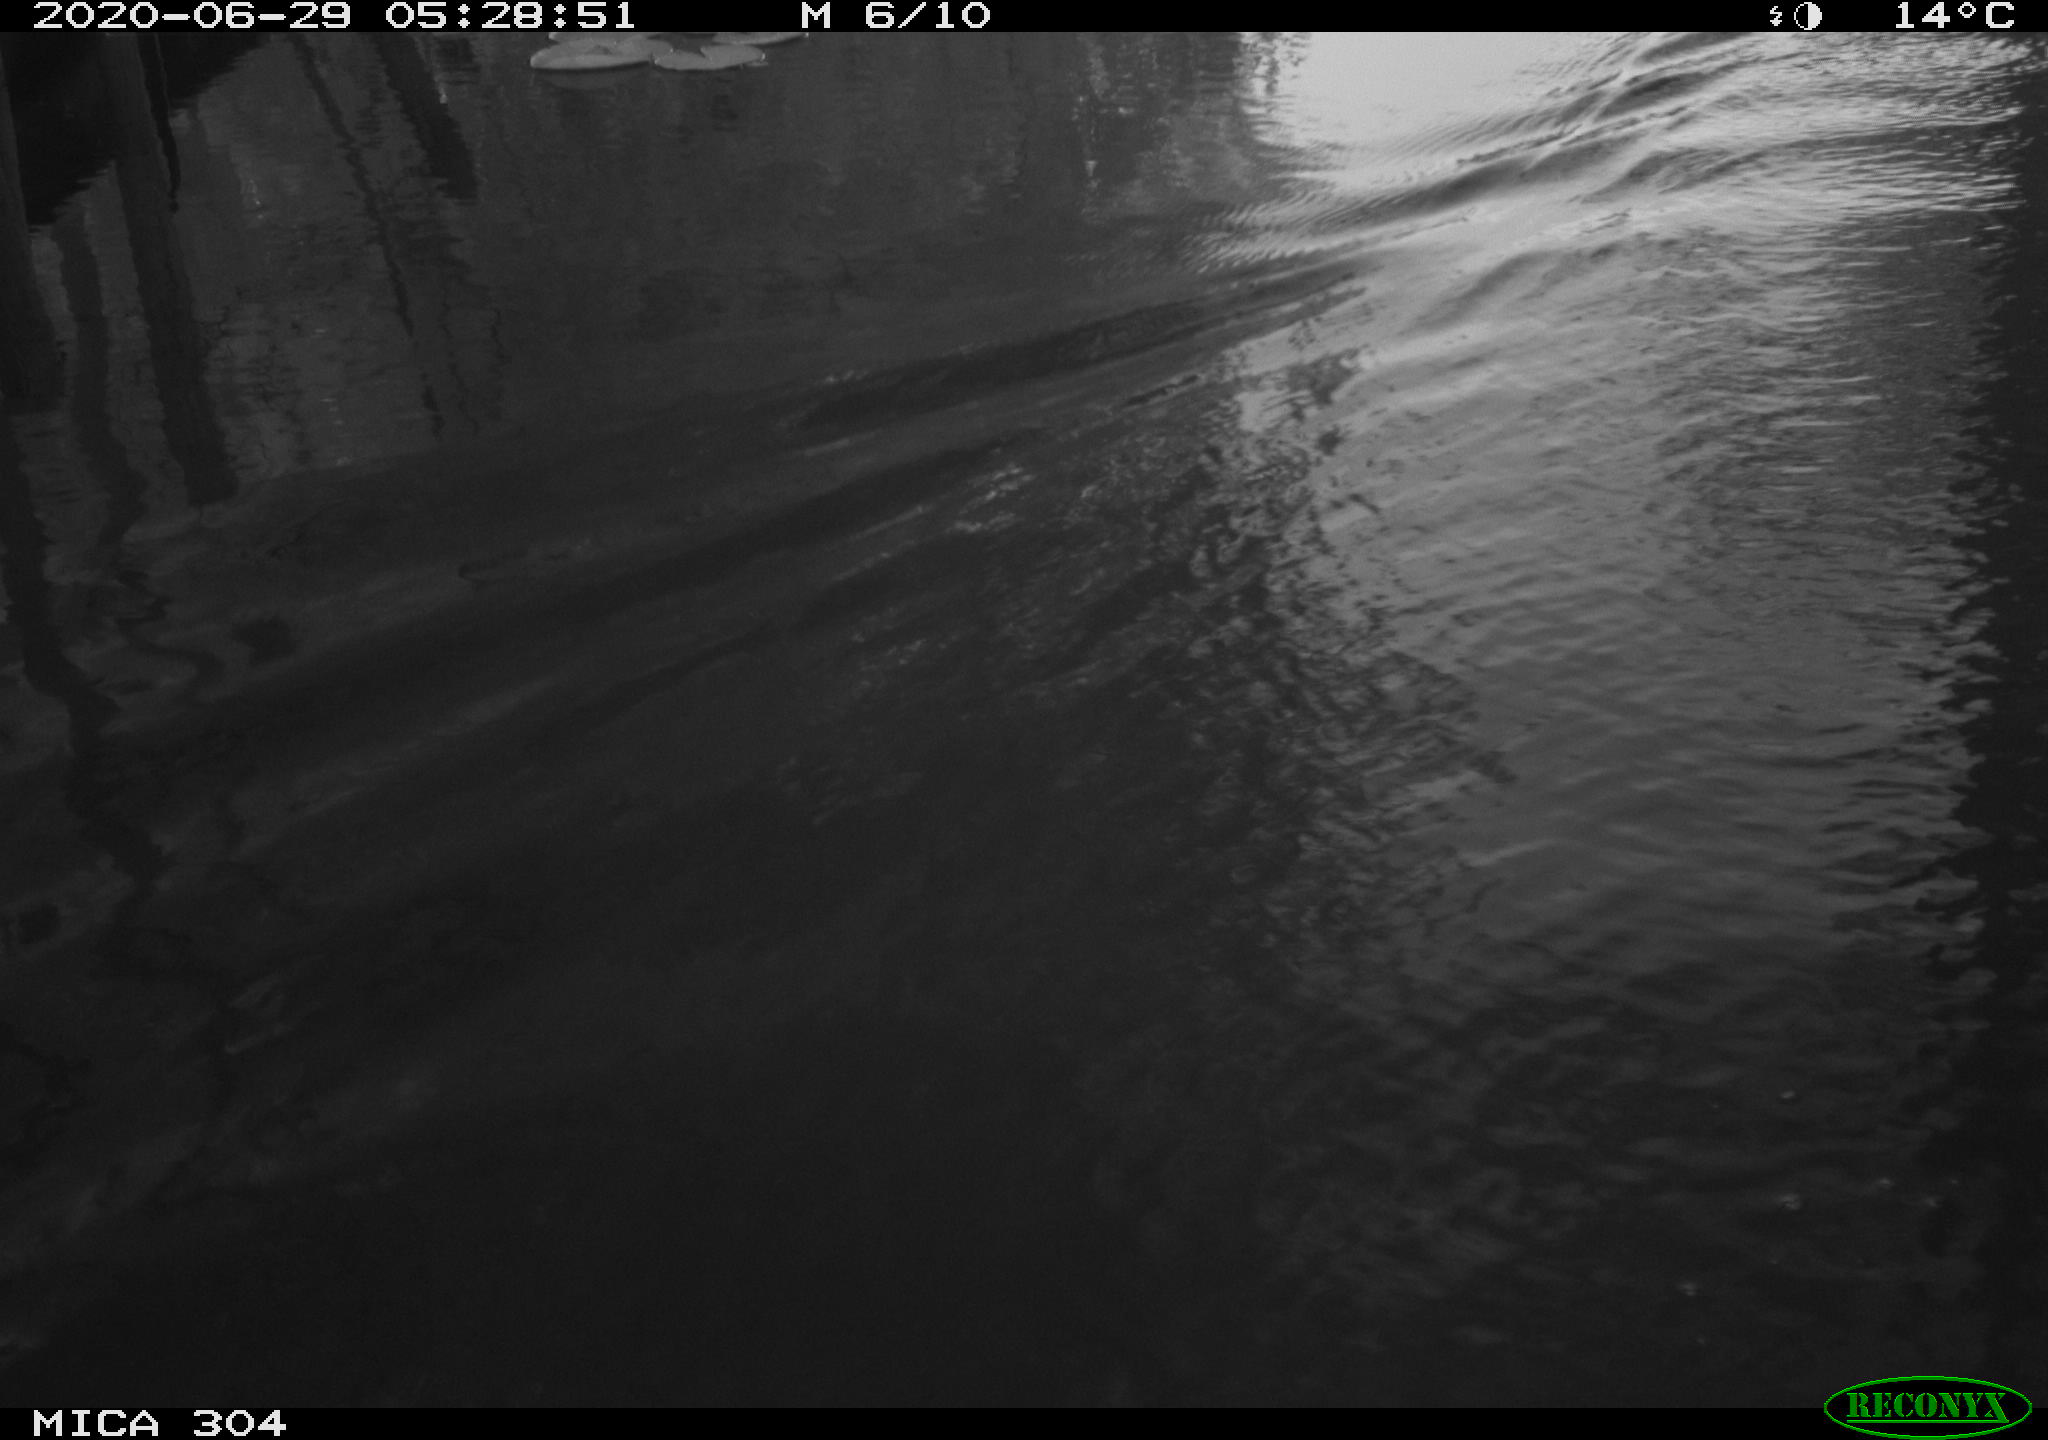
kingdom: Animalia
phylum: Chordata
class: Aves
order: Anseriformes
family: Anatidae
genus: Anas
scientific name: Anas platyrhynchos
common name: Mallard
